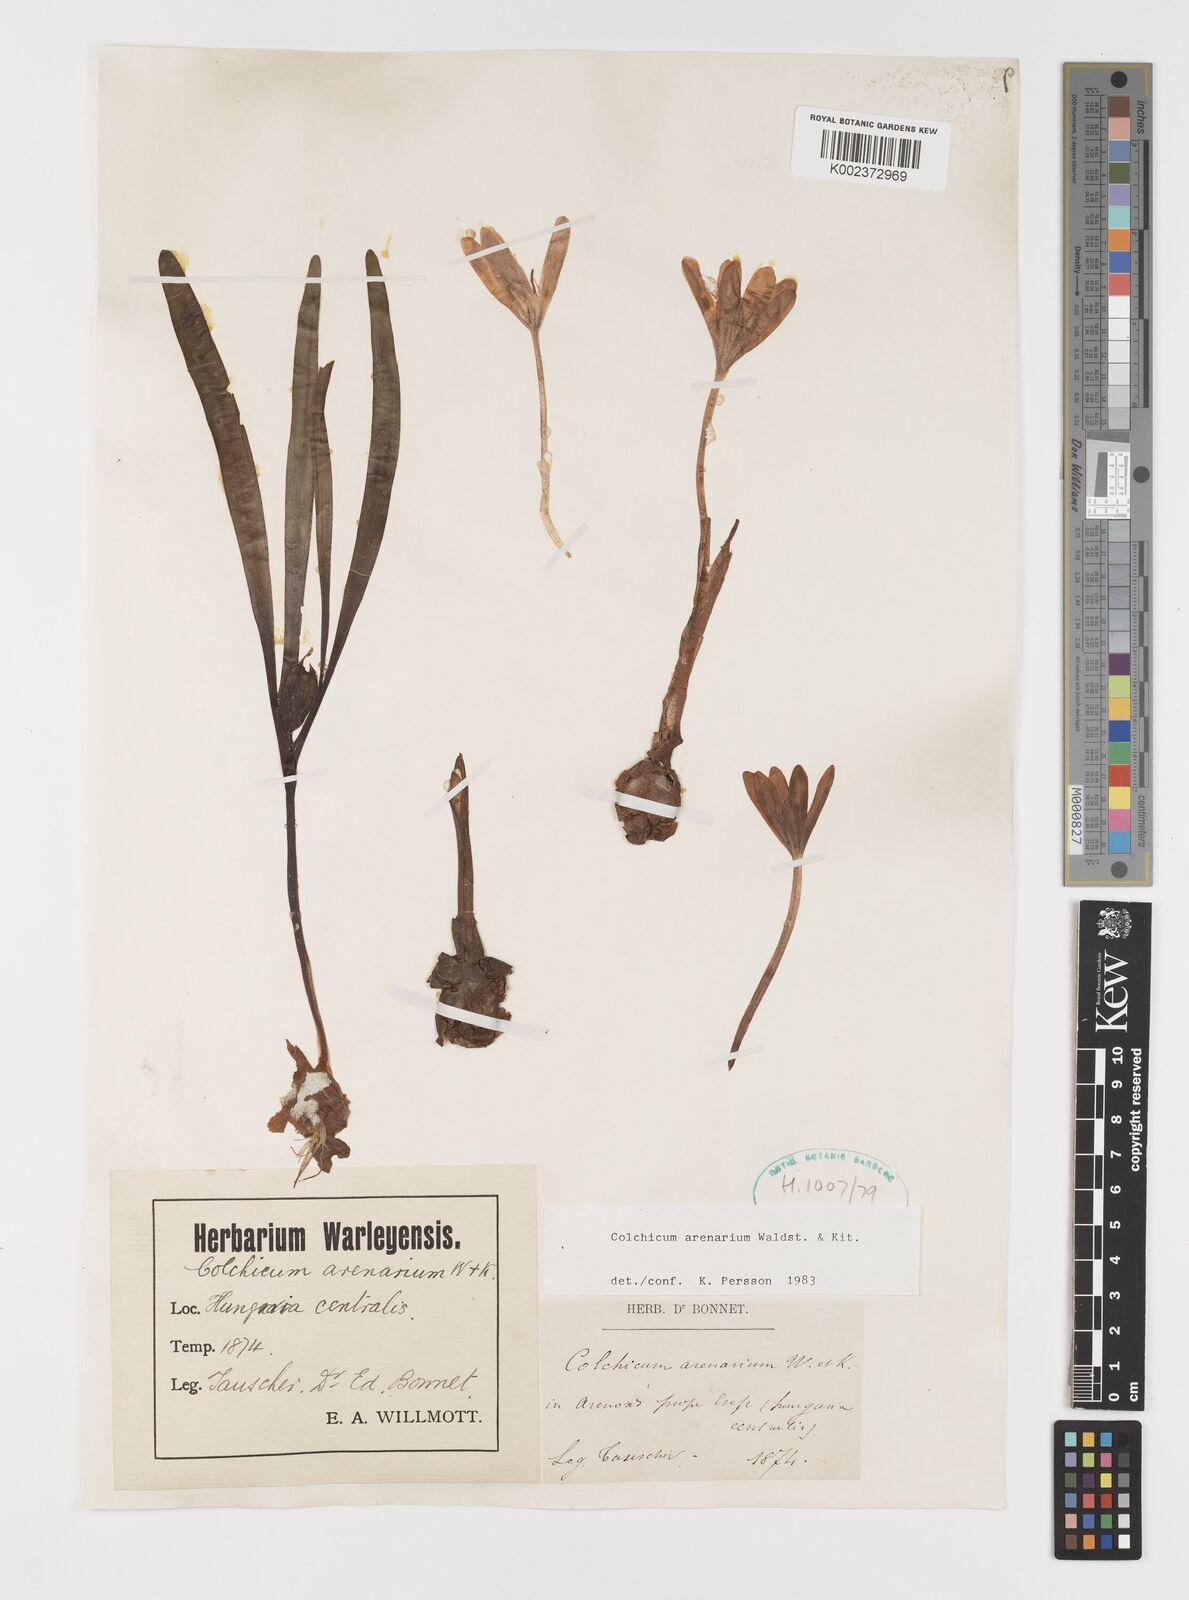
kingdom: Plantae
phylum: Tracheophyta
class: Liliopsida
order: Liliales
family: Colchicaceae
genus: Colchicum
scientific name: Colchicum arenarium
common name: Sand saffron
